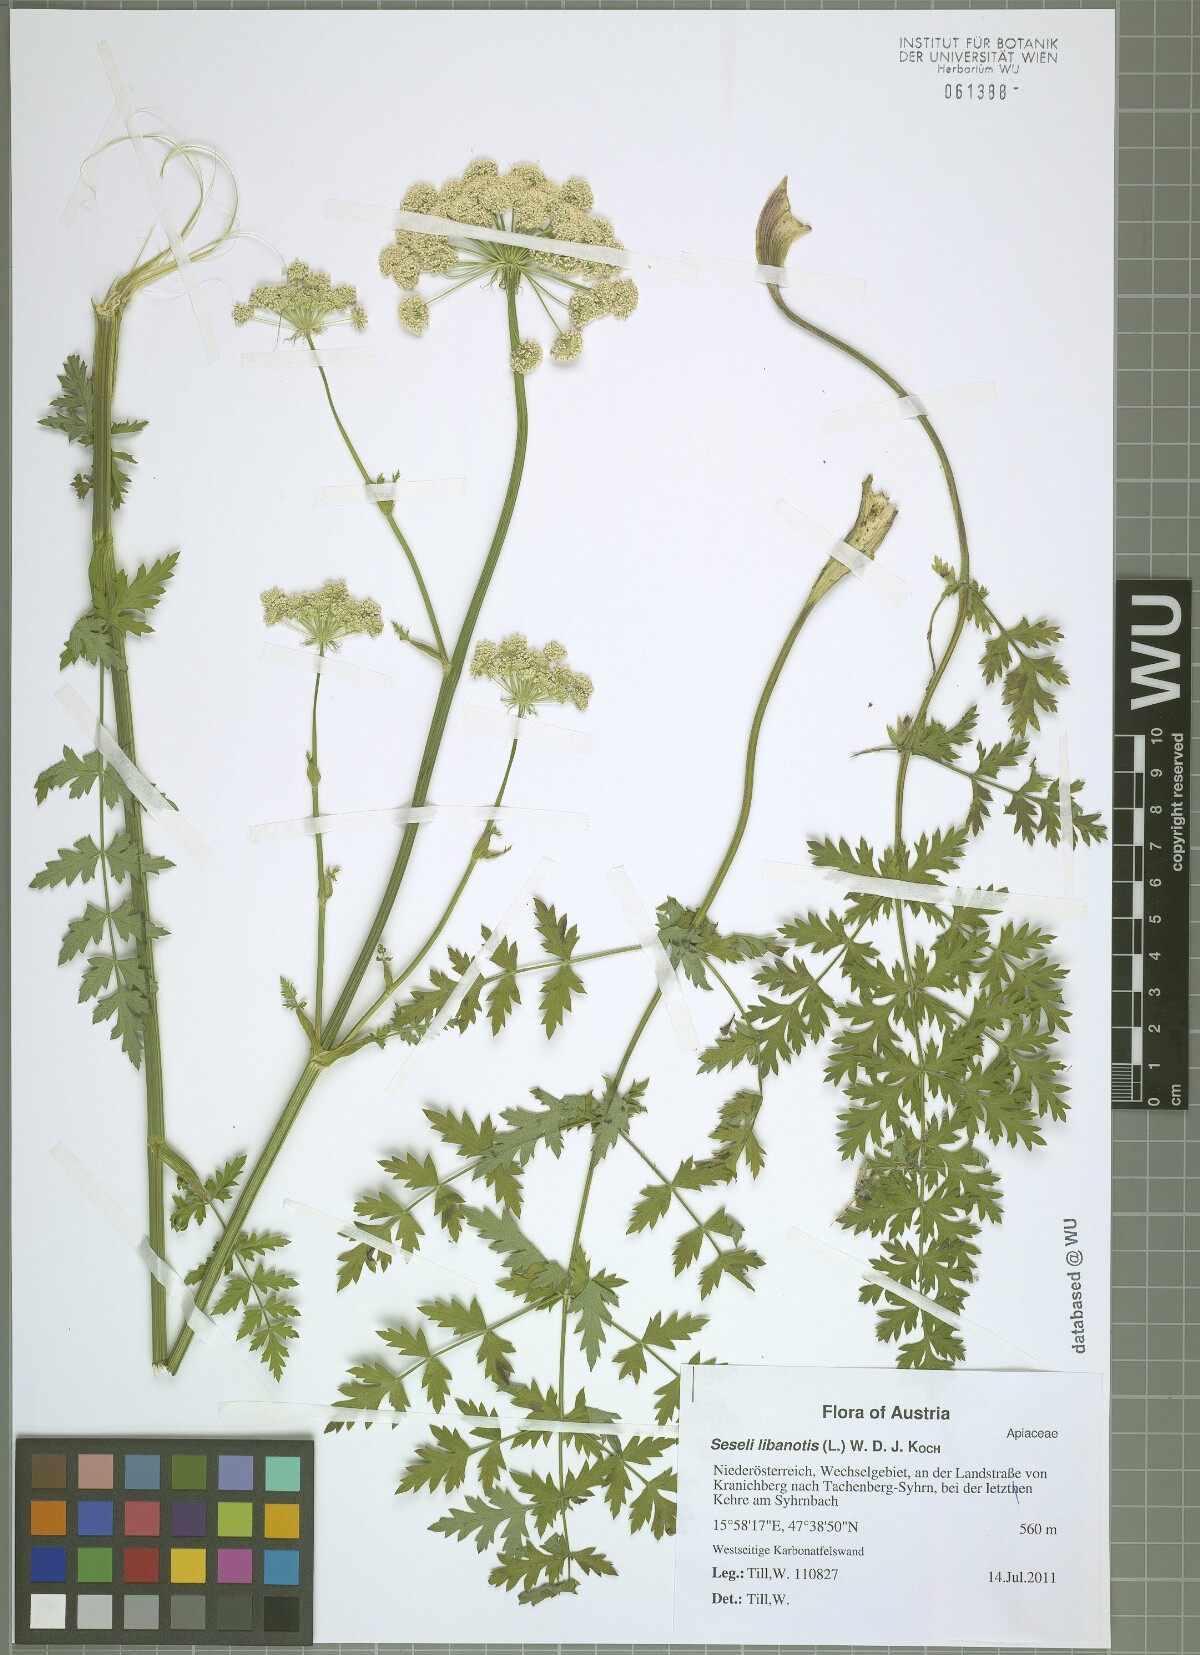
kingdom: Plantae
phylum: Tracheophyta
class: Magnoliopsida
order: Apiales
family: Apiaceae
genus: Seseli
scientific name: Seseli libanotis
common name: Mooncarrot
